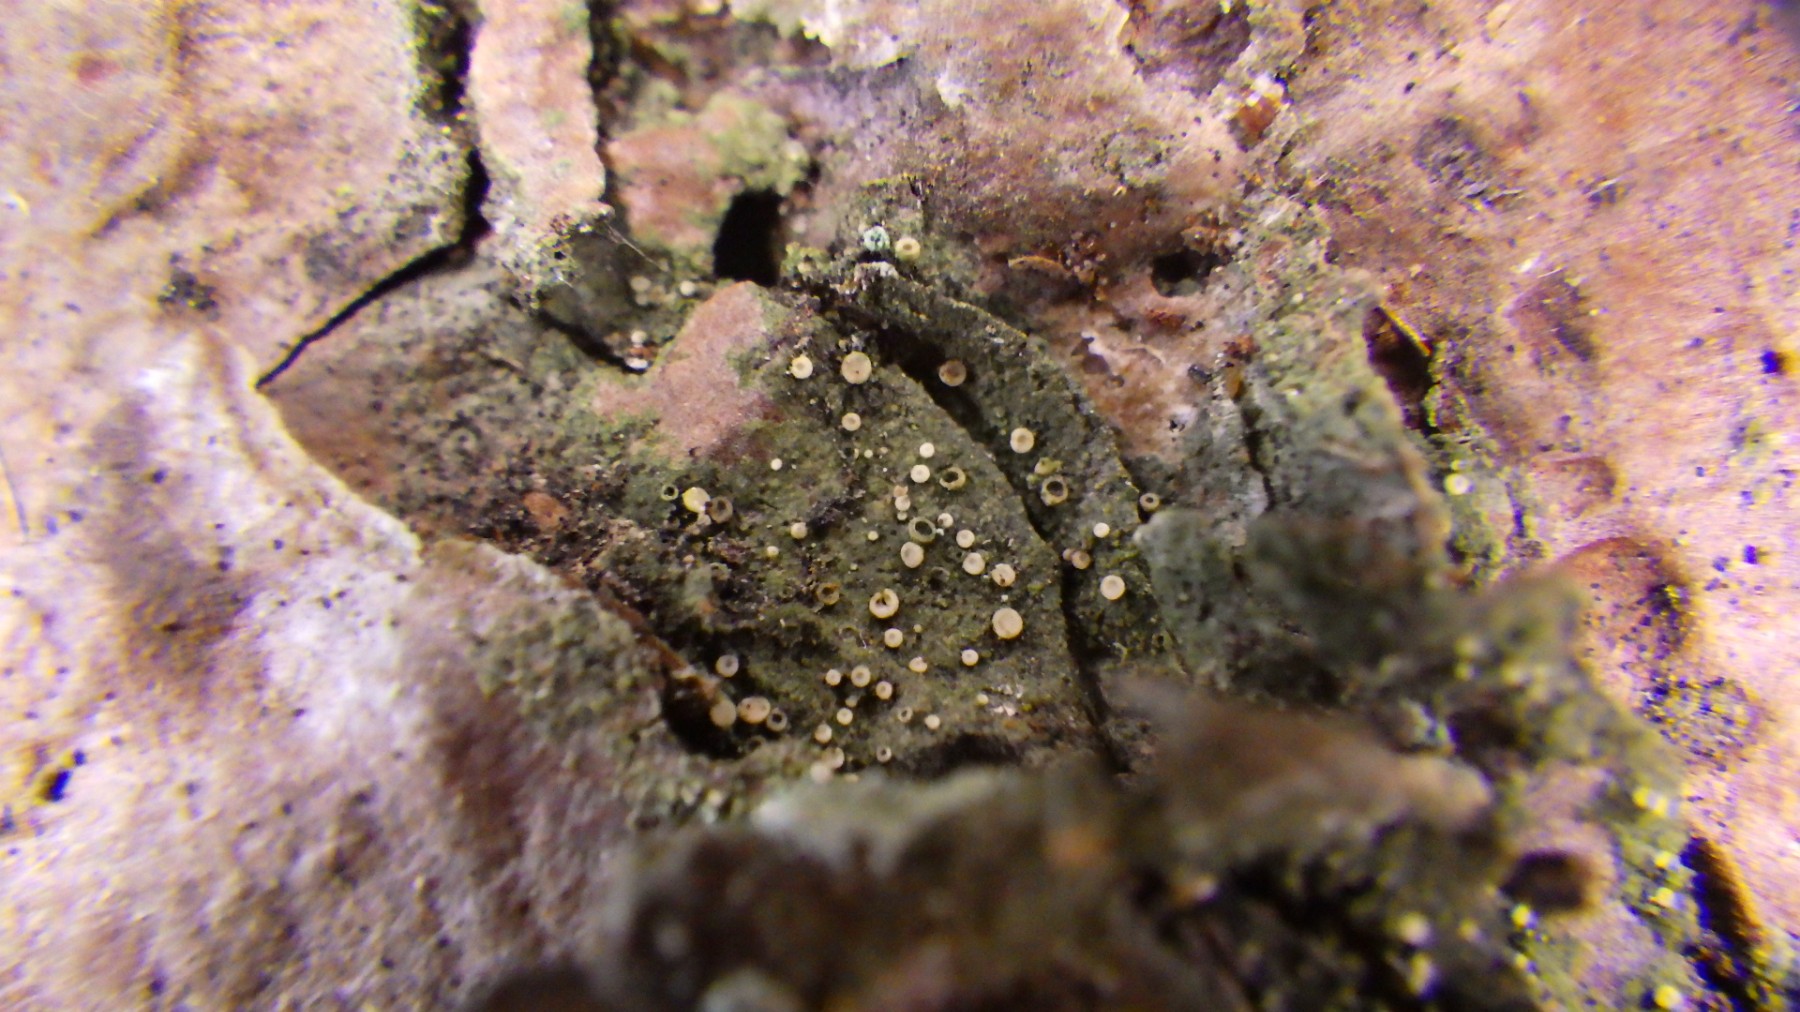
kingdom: Fungi
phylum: Ascomycota
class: Lecanoromycetes
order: Ostropales
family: Coenogoniaceae
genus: Coenogonium
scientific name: Coenogonium pineti
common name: liden vokslav
